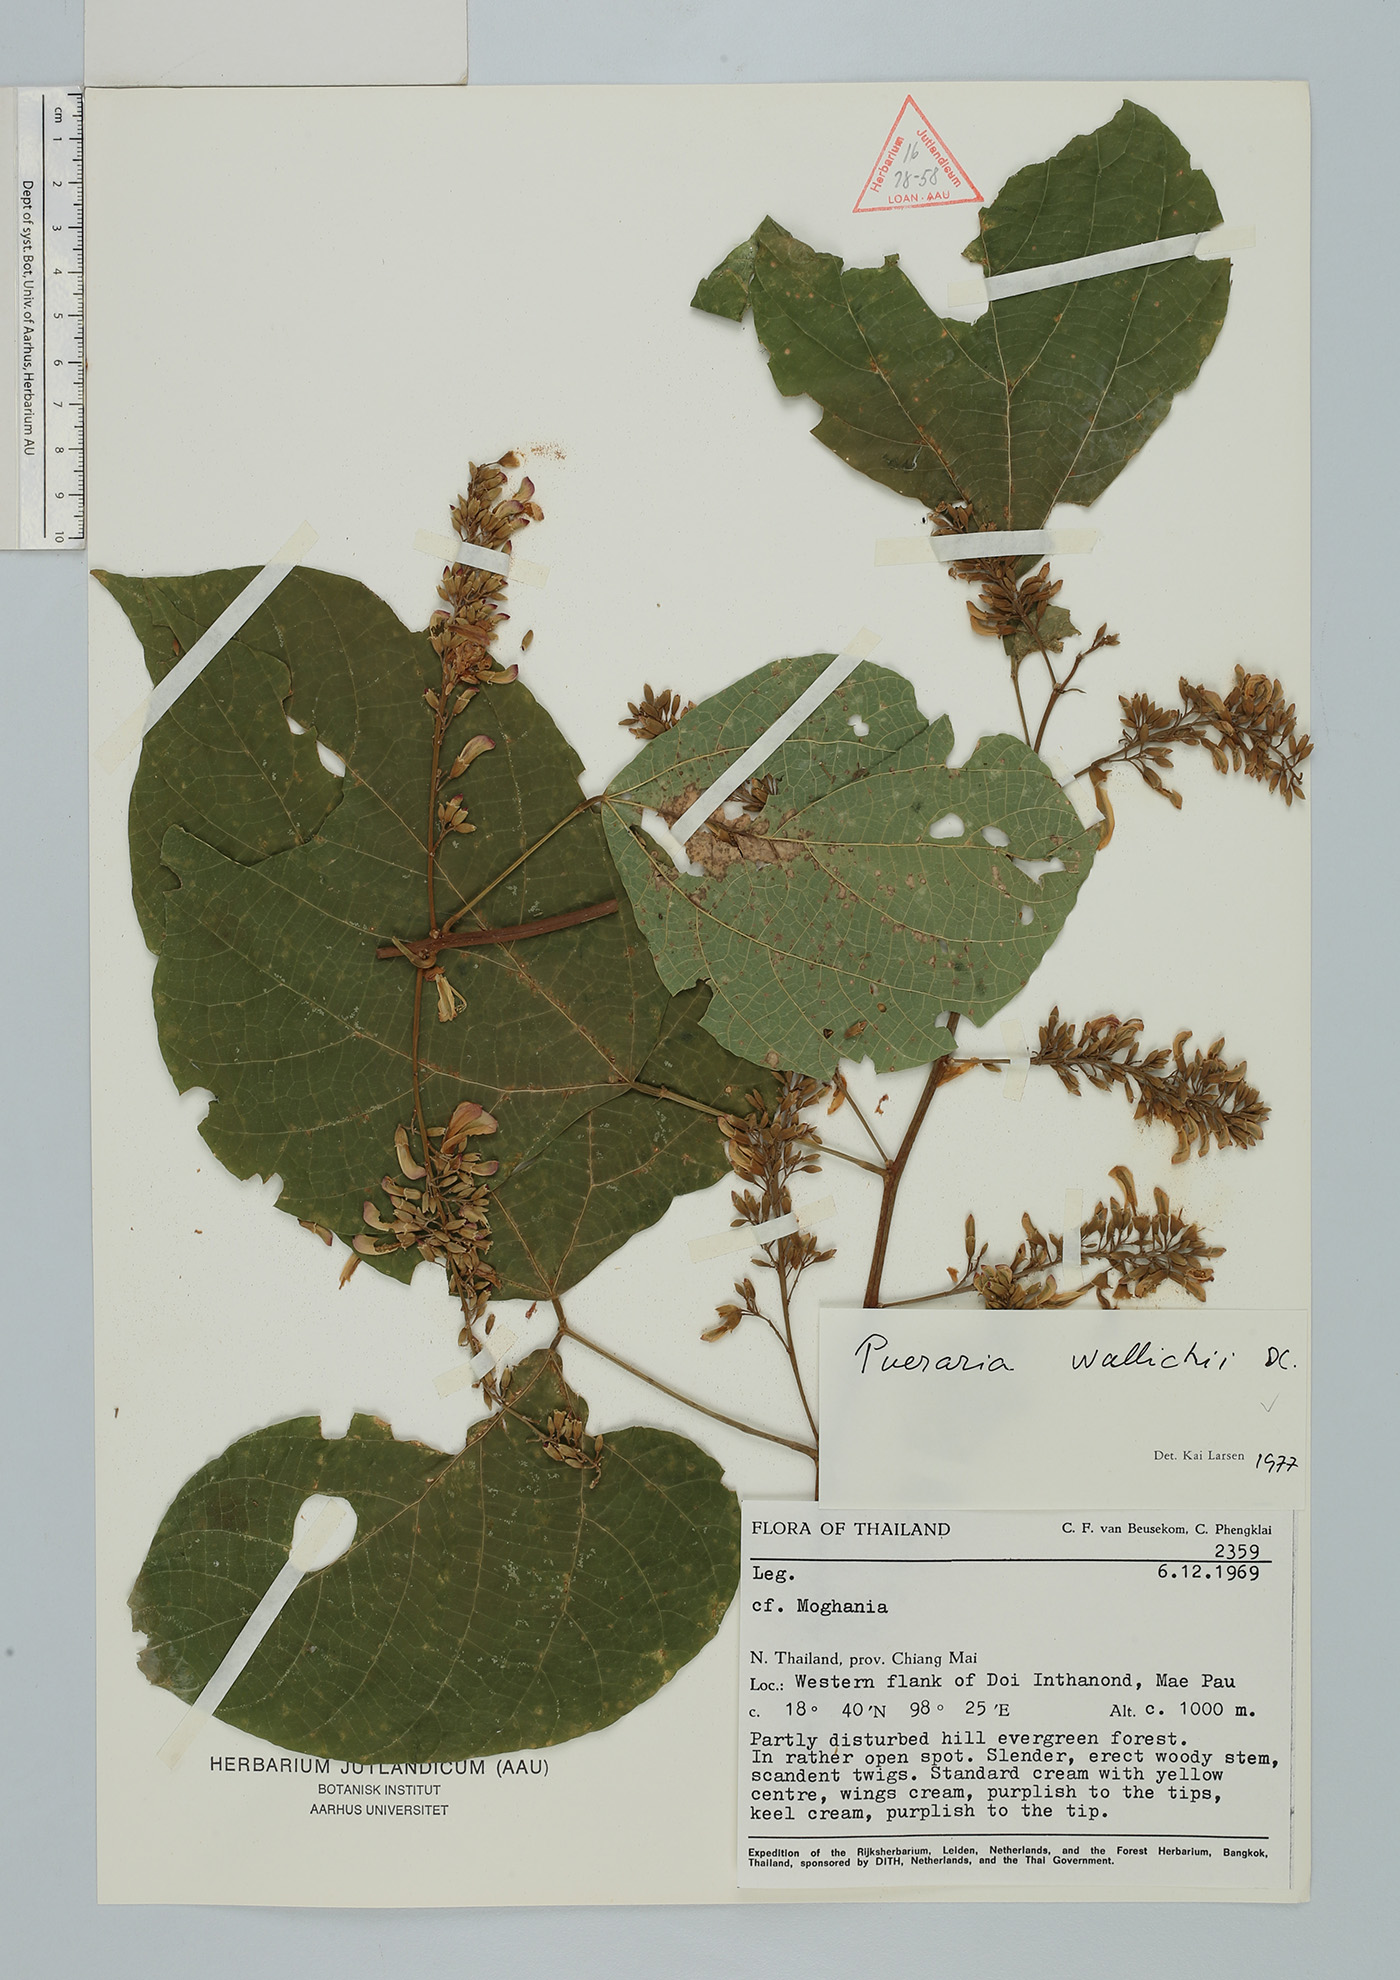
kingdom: Plantae
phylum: Tracheophyta
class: Magnoliopsida
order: Fabales
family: Fabaceae
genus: Haymondia
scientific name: Haymondia wallichii
